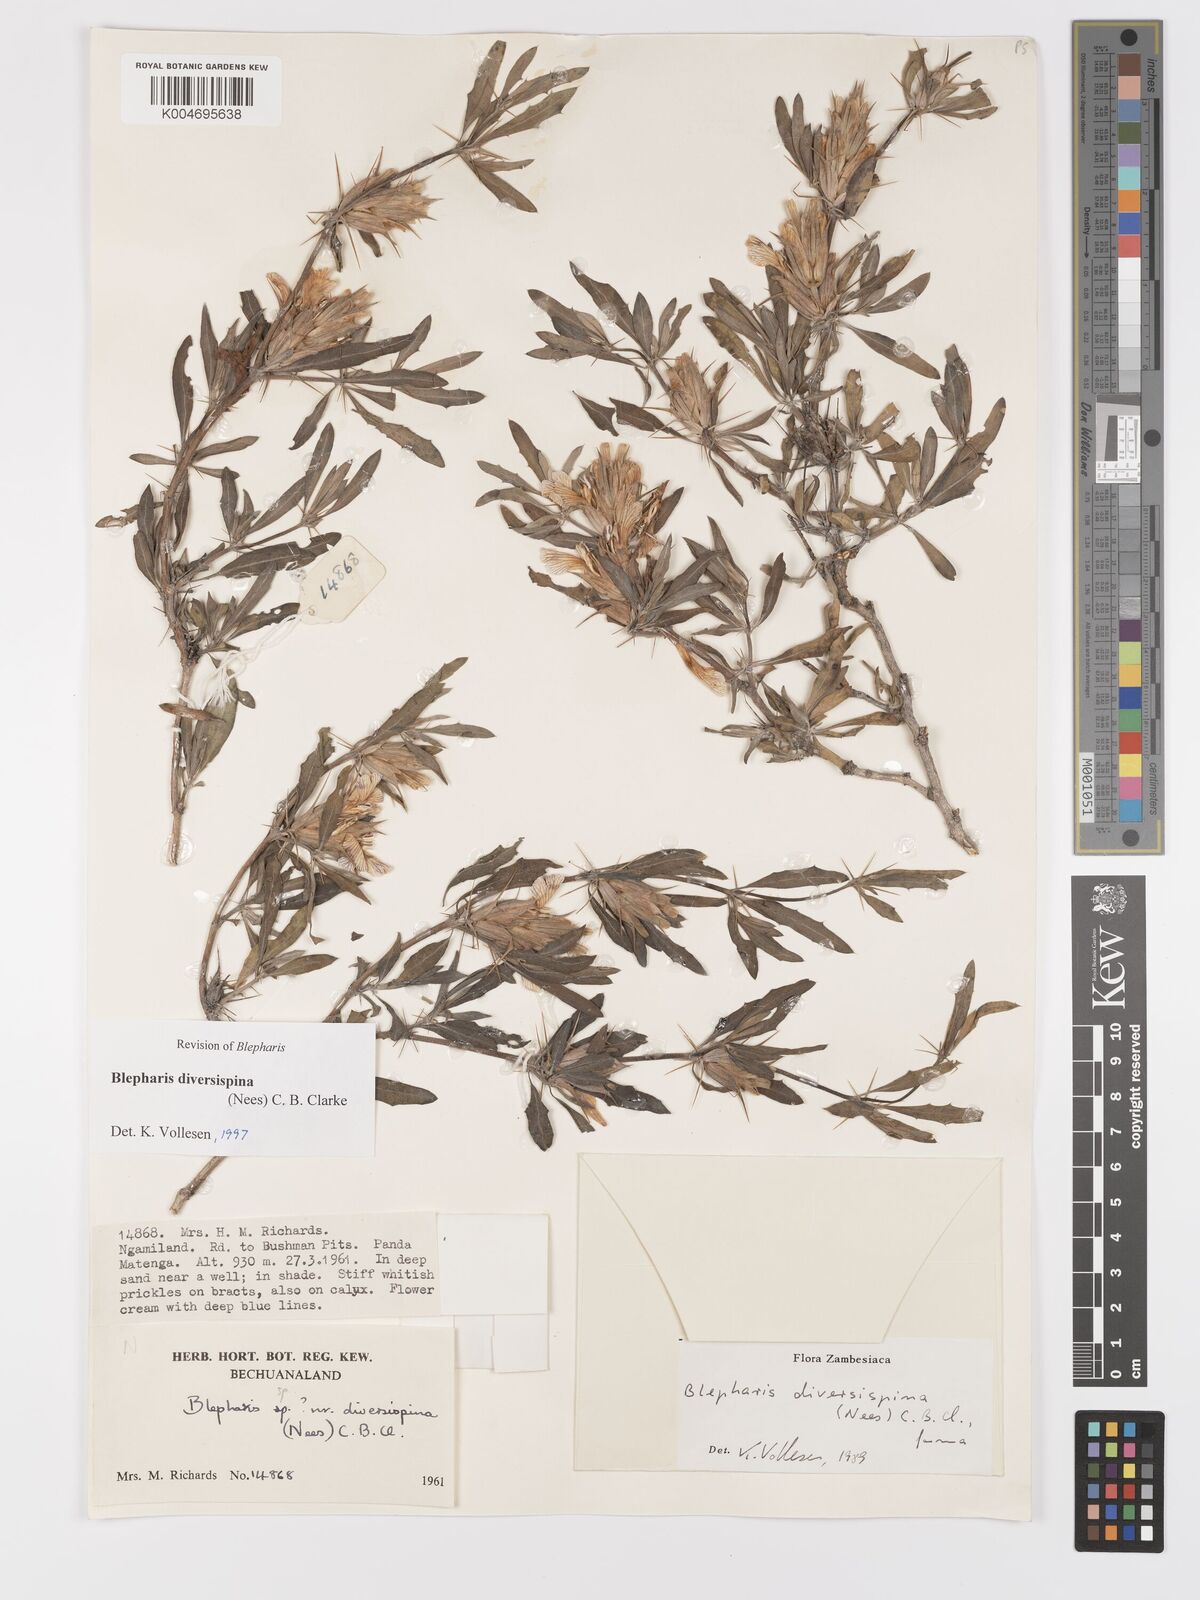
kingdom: Plantae
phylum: Tracheophyta
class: Magnoliopsida
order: Lamiales
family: Acanthaceae
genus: Blepharis
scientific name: Blepharis diversispina
